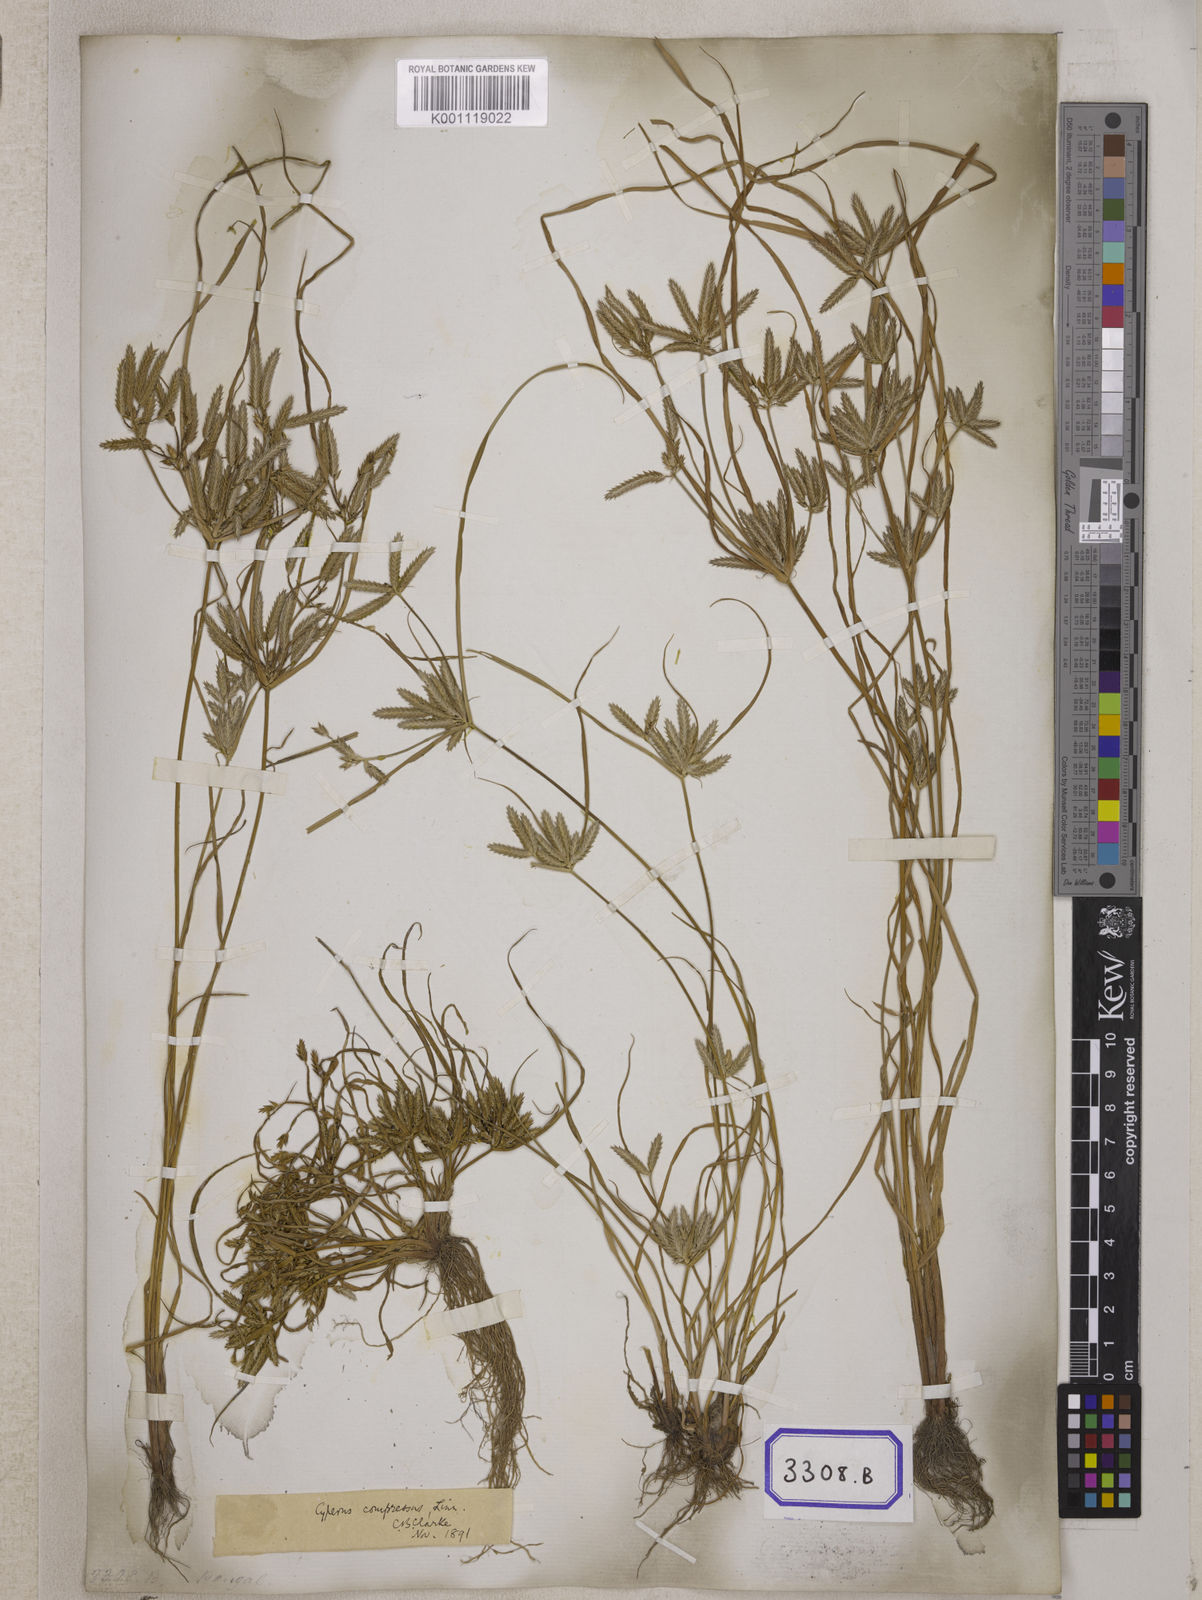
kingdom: Plantae
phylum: Tracheophyta
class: Liliopsida
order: Poales
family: Cyperaceae
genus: Cyperus
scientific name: Cyperus
